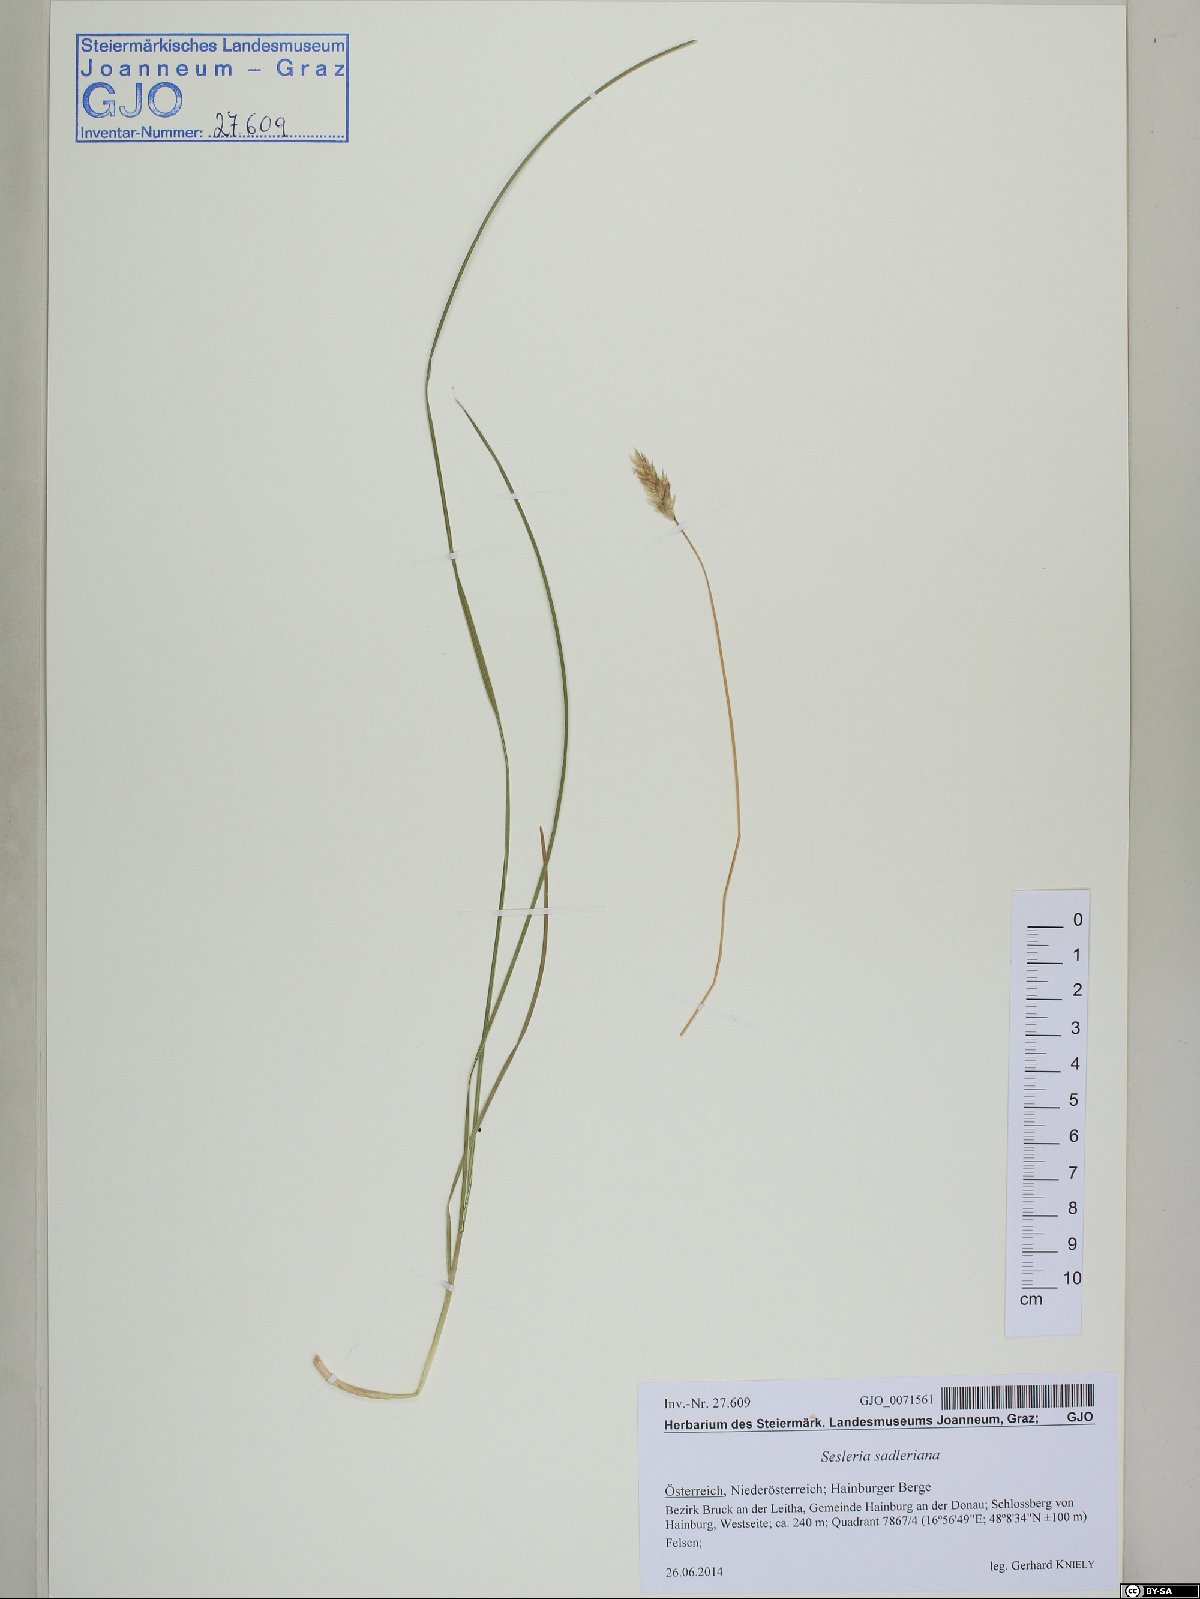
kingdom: Plantae
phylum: Tracheophyta
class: Liliopsida
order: Poales
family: Poaceae
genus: Sesleria
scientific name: Sesleria sadleriana
